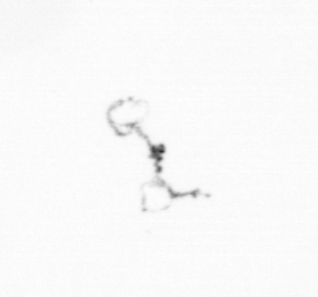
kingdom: Chromista
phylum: Ochrophyta
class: Bacillariophyceae
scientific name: Bacillariophyceae
